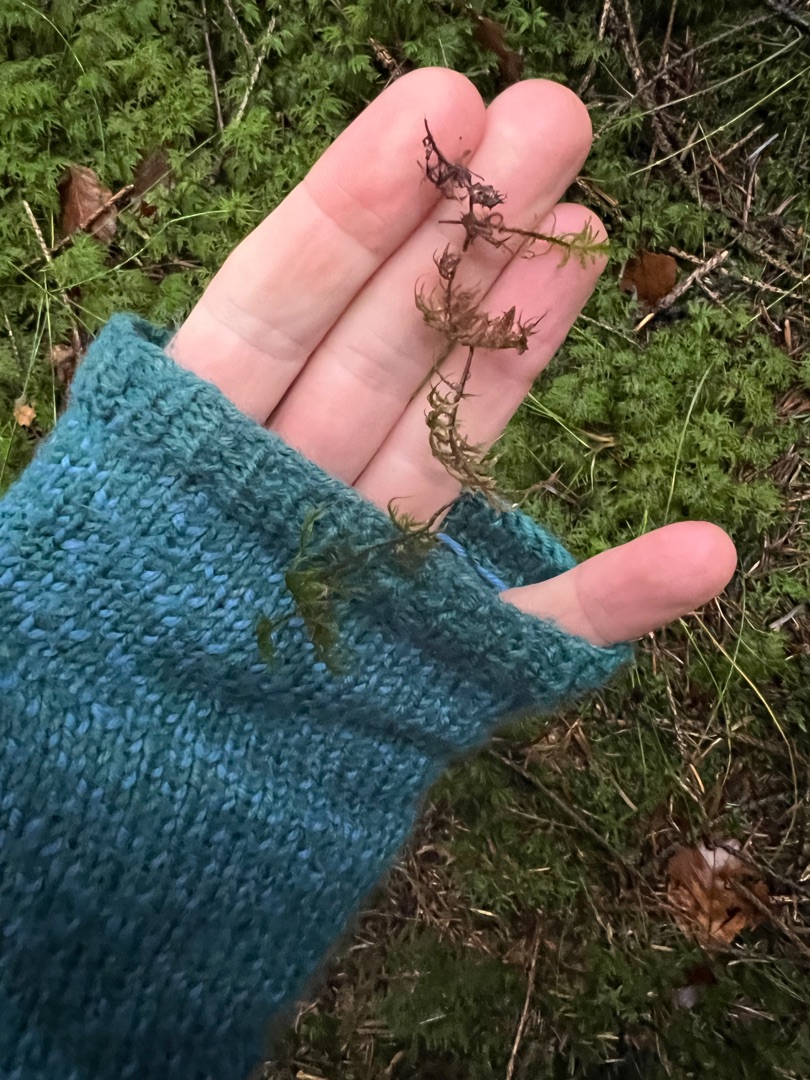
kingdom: Plantae
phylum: Bryophyta
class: Bryopsida
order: Hypnales
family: Hylocomiaceae
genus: Hylocomium
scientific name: Hylocomium splendens
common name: Almindelig etagemos
